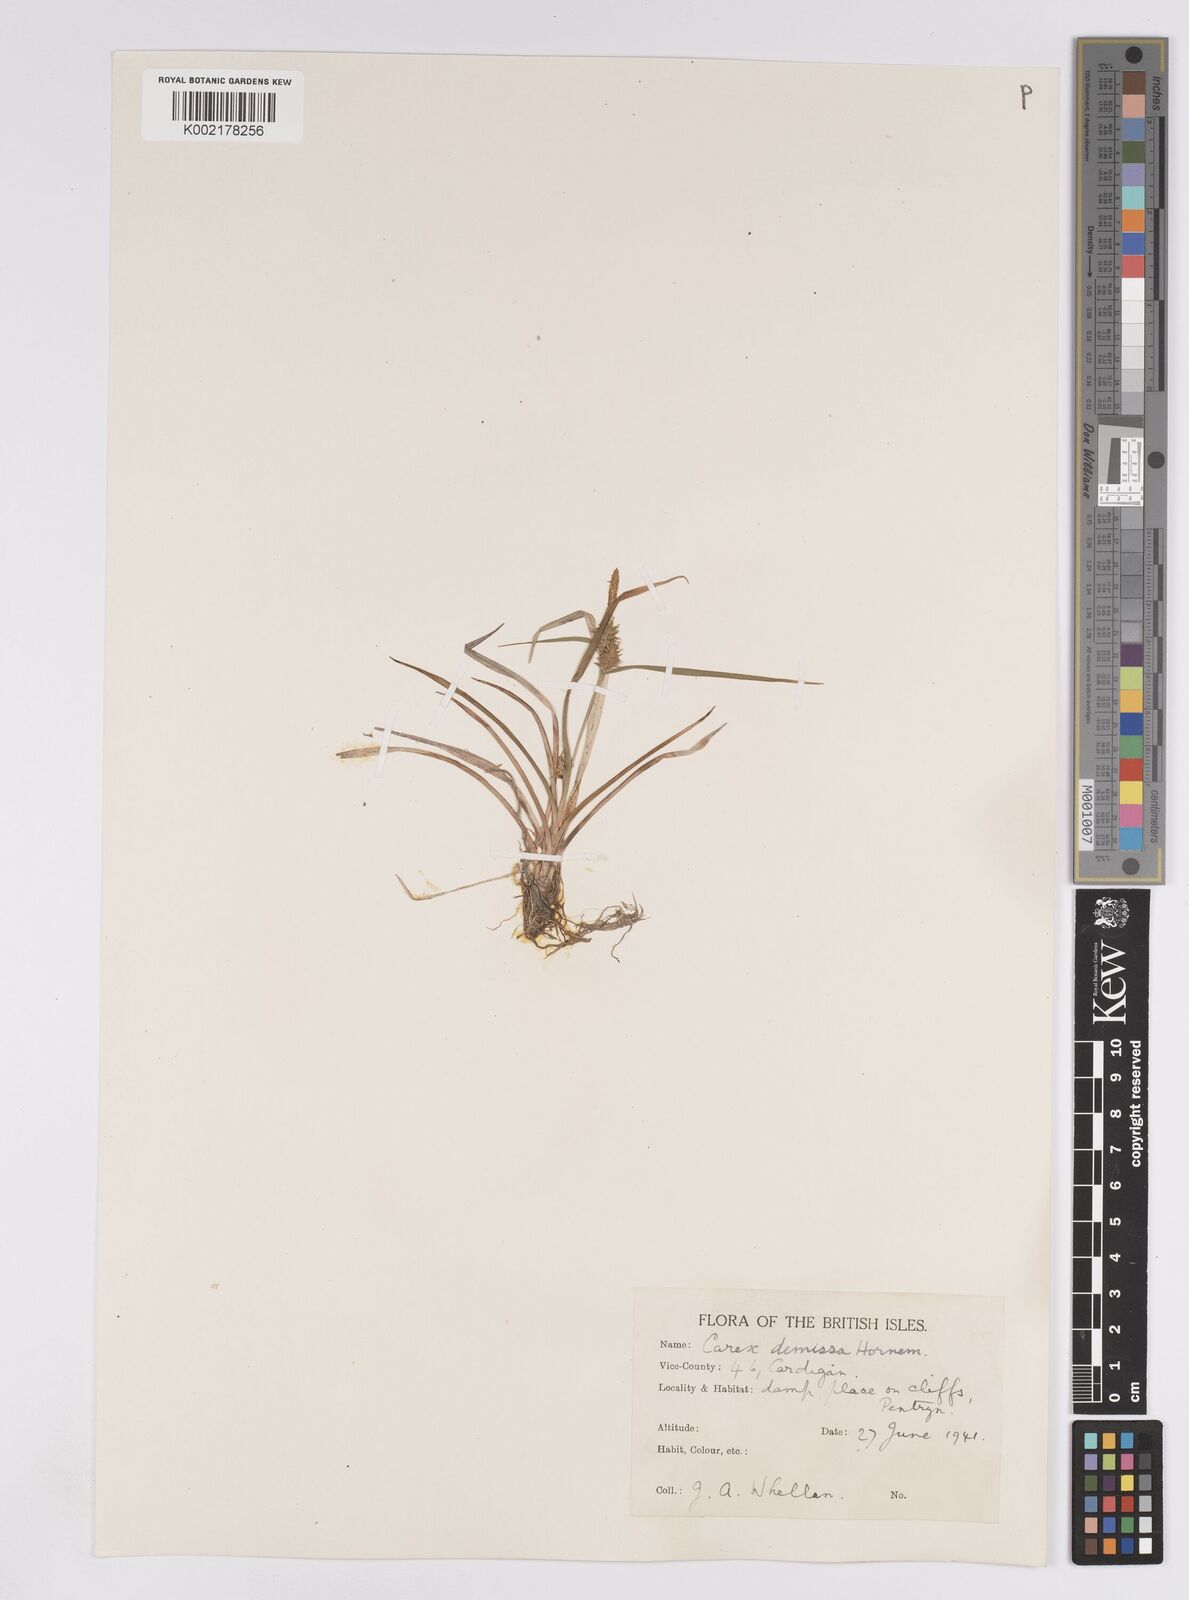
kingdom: Plantae
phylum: Tracheophyta
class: Liliopsida
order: Poales
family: Cyperaceae
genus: Carex
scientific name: Carex demissa
